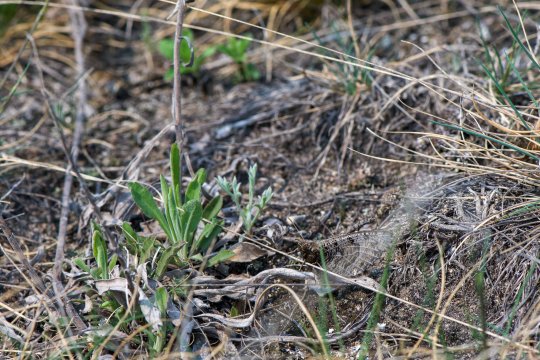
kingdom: Animalia
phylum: Arthropoda
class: Insecta
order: Lepidoptera
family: Nymphalidae
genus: Oeneis
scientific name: Oeneis alberta
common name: Alberta Arctic
